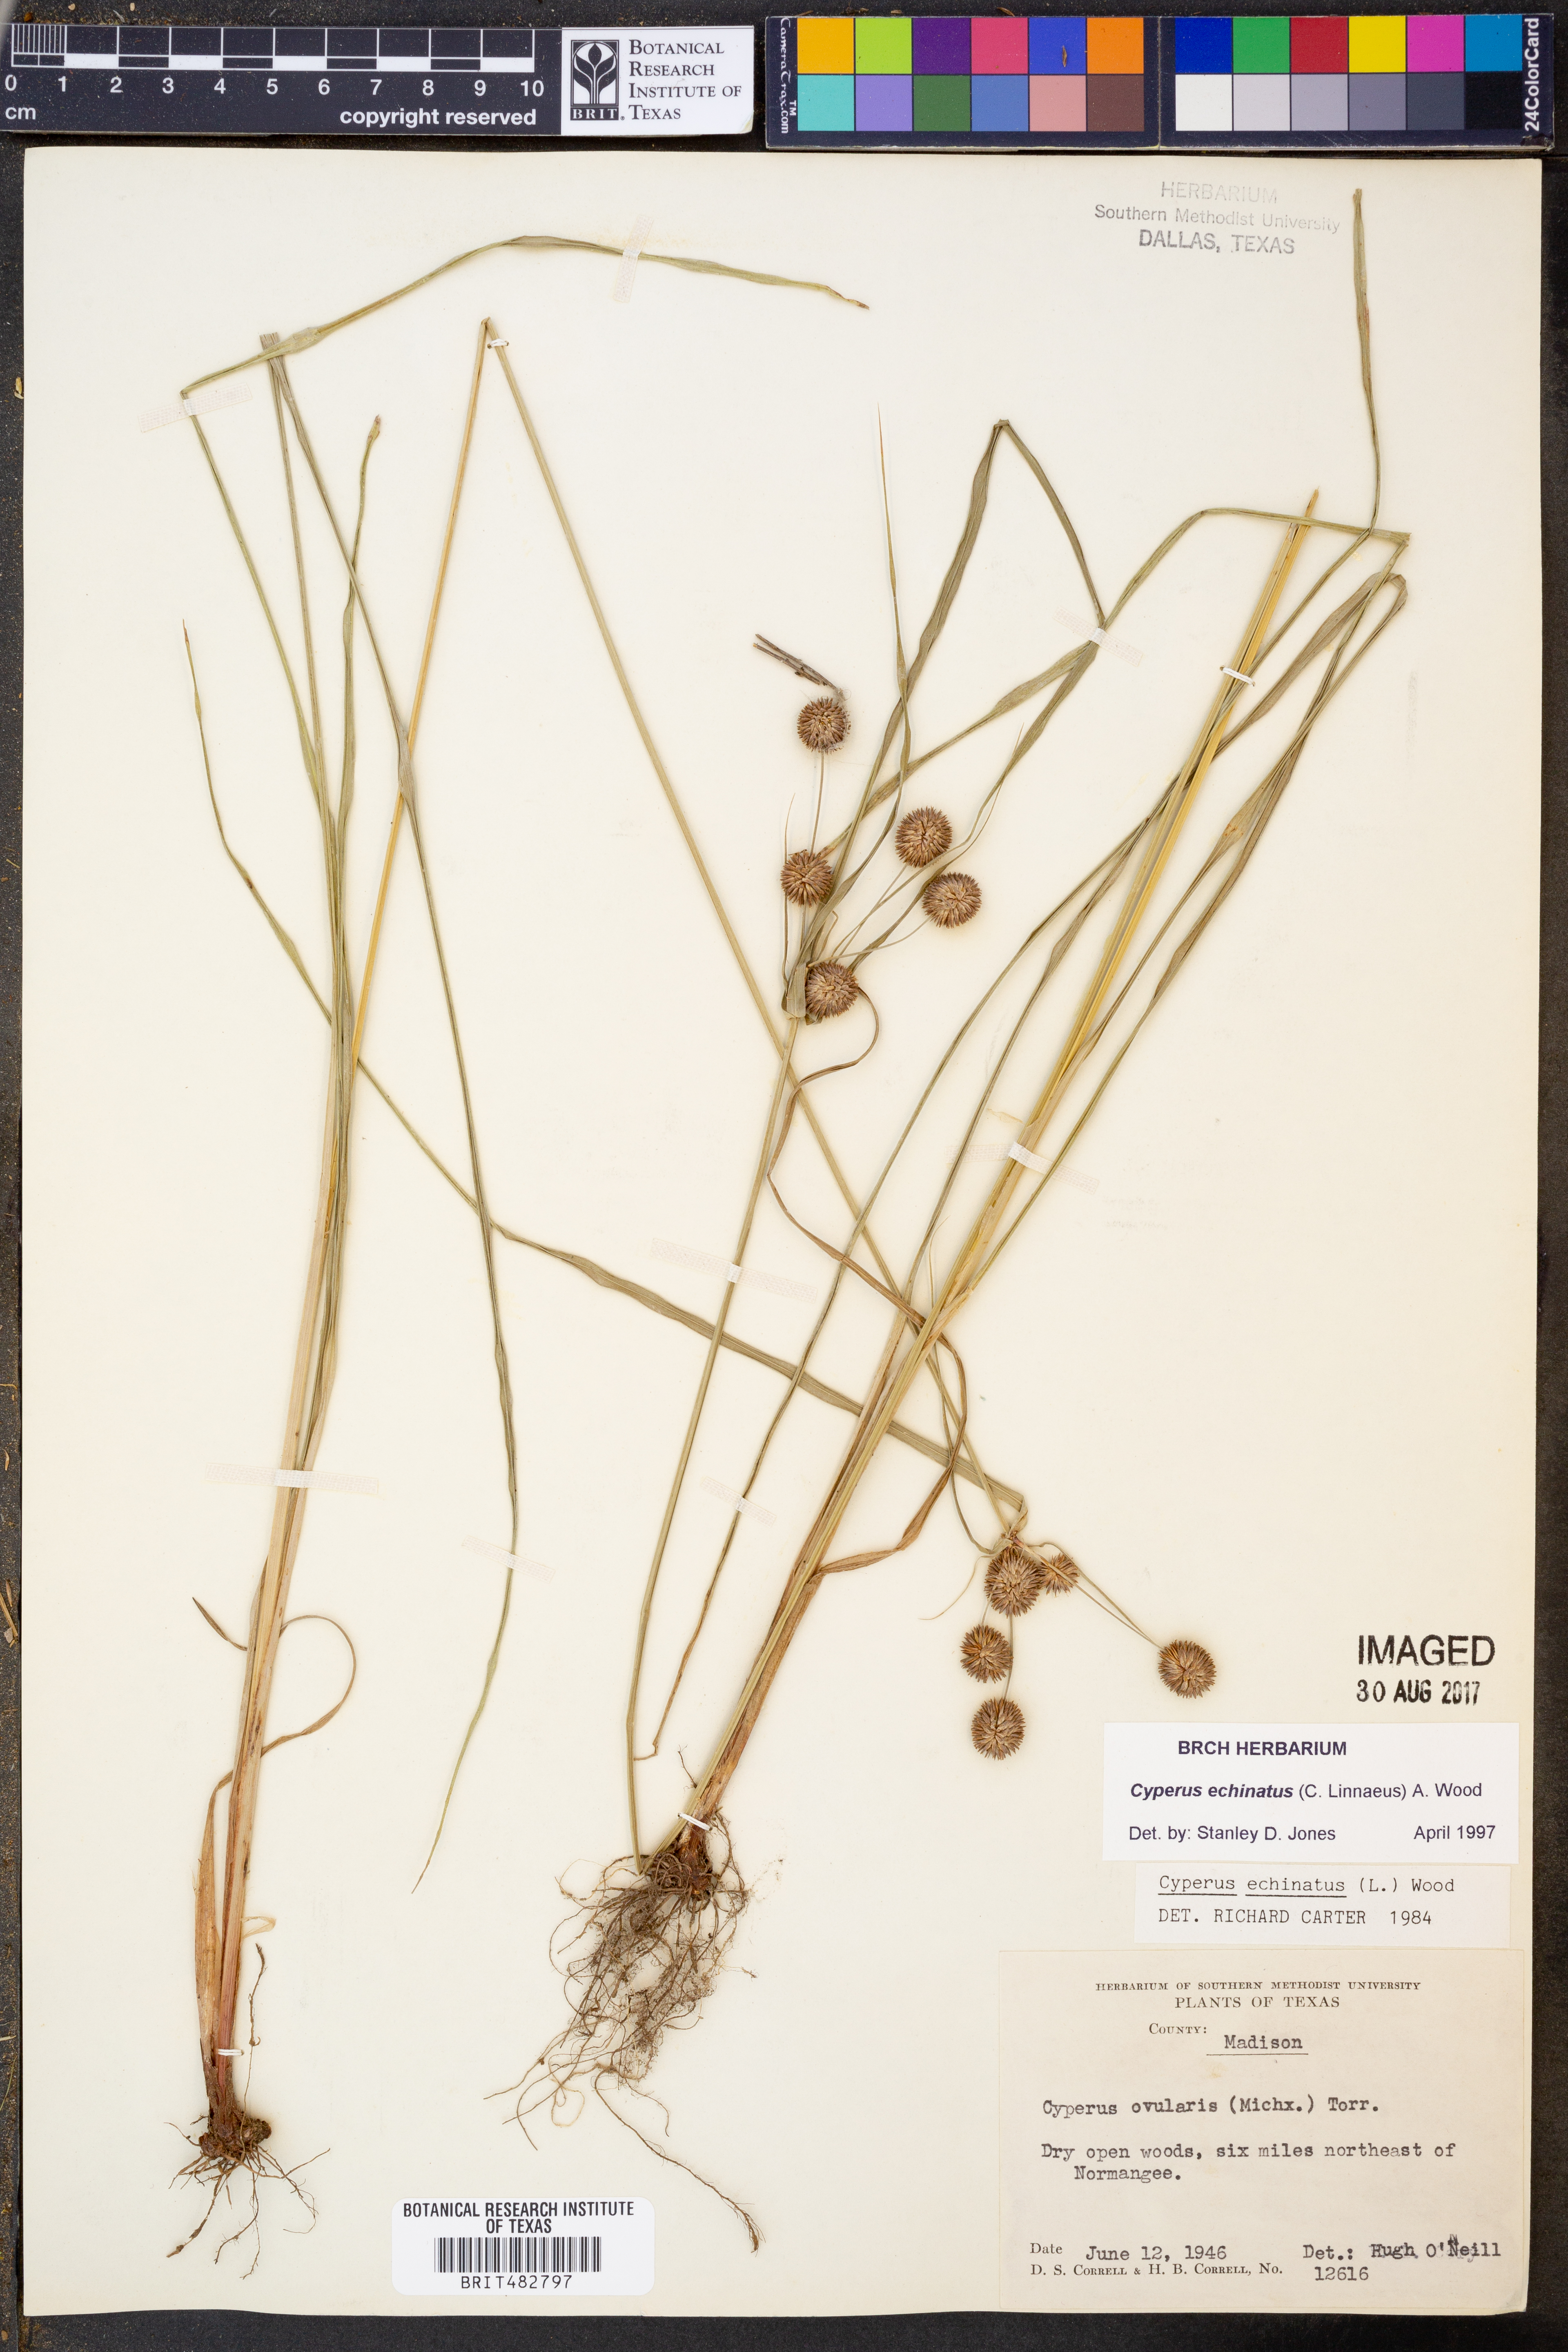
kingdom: Plantae
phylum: Tracheophyta
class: Liliopsida
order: Poales
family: Cyperaceae
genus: Cyperus
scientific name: Cyperus echinatus
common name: Teasel sedge
